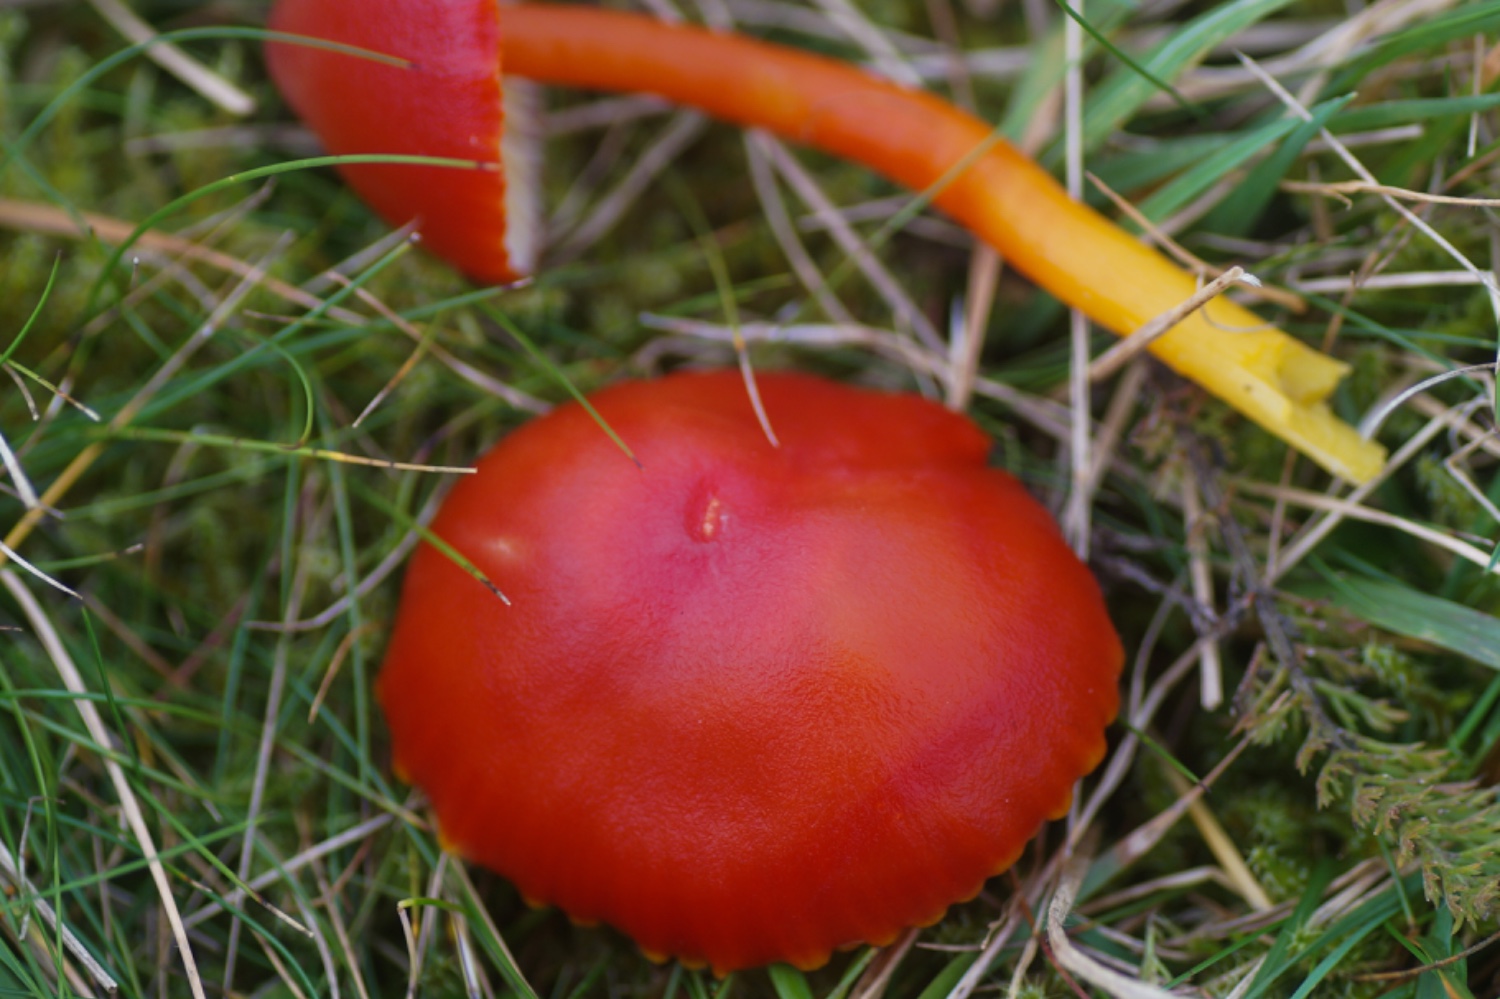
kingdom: Fungi
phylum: Basidiomycota
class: Agaricomycetes
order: Agaricales
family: Hygrophoraceae
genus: Hygrocybe
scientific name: Hygrocybe coccinea
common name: cinnober-vokshat
